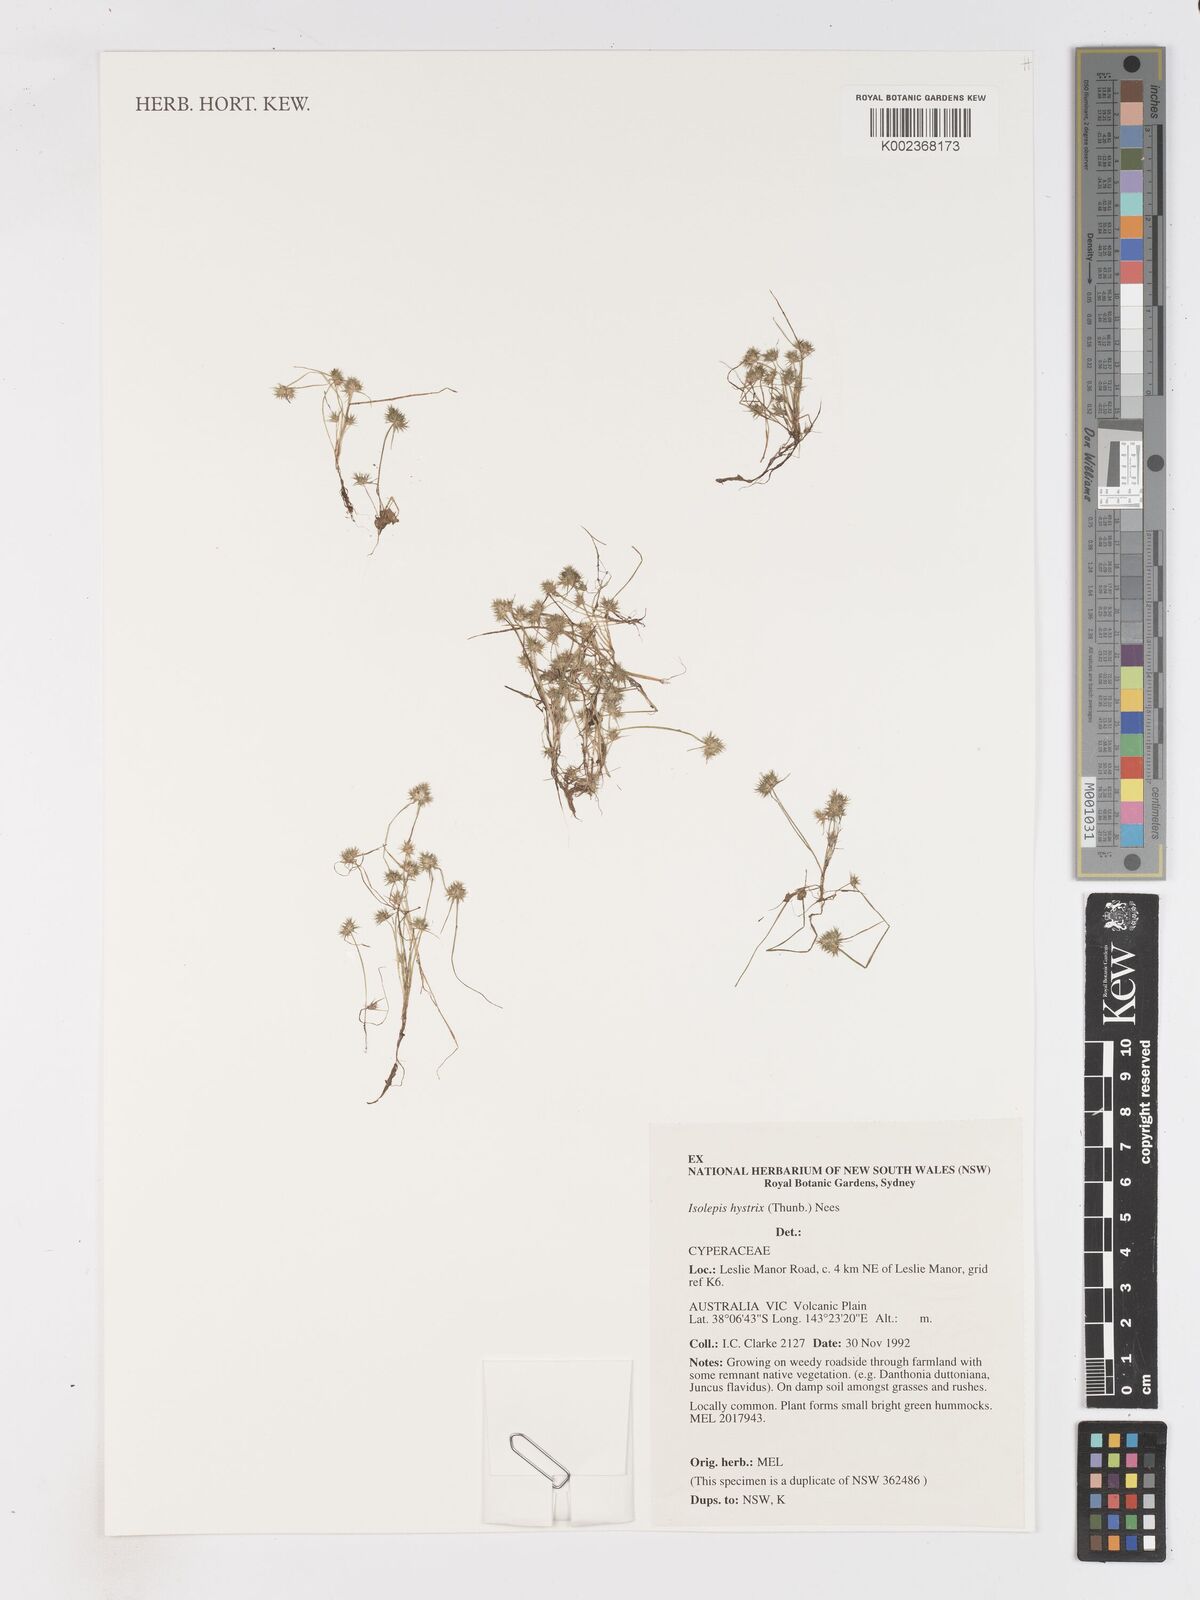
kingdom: Plantae
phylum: Tracheophyta
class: Liliopsida
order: Poales
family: Cyperaceae
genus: Isolepis
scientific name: Isolepis hystrix
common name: Bottlebrush bulrush
